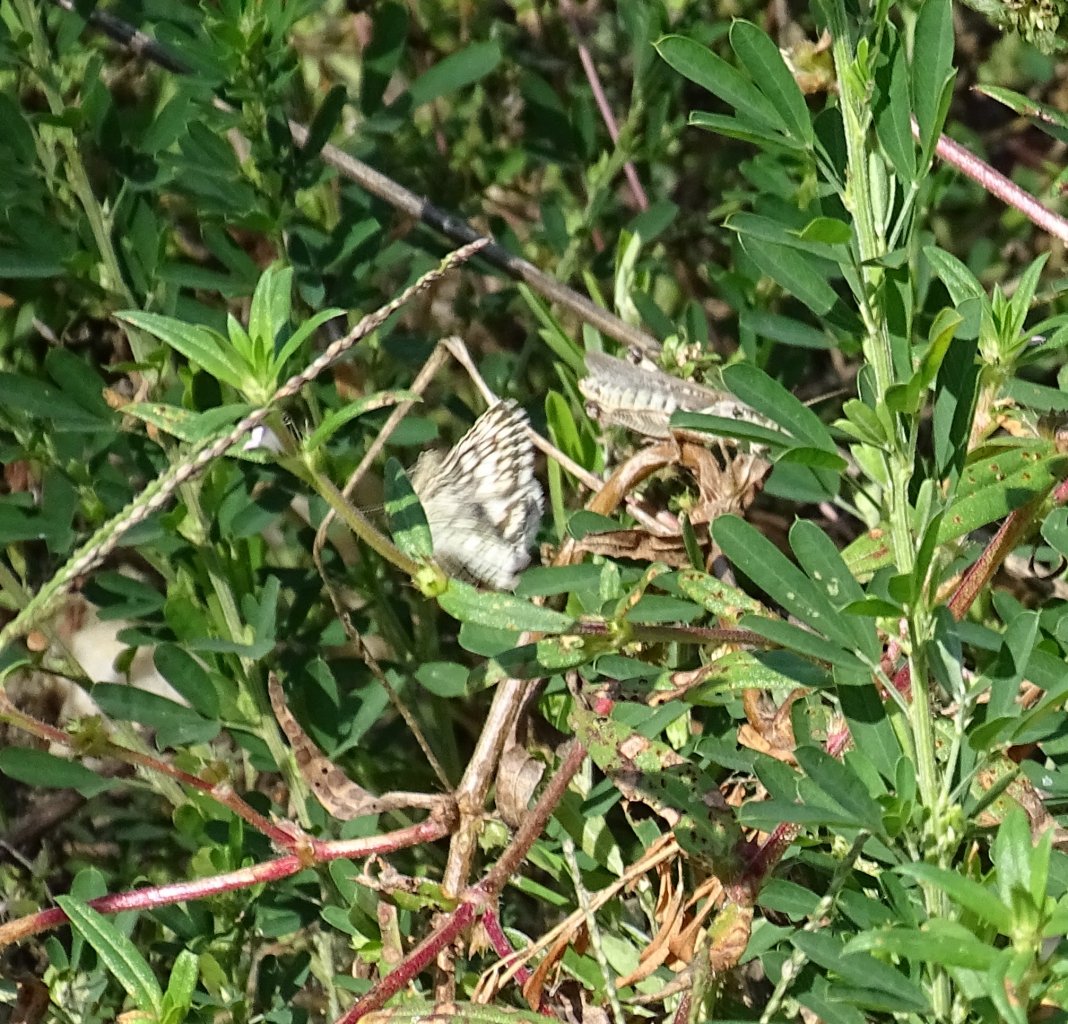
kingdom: Animalia
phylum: Arthropoda
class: Insecta
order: Lepidoptera
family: Hesperiidae
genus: Pyrgus
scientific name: Pyrgus communis
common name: Common Checkered-Skipper
